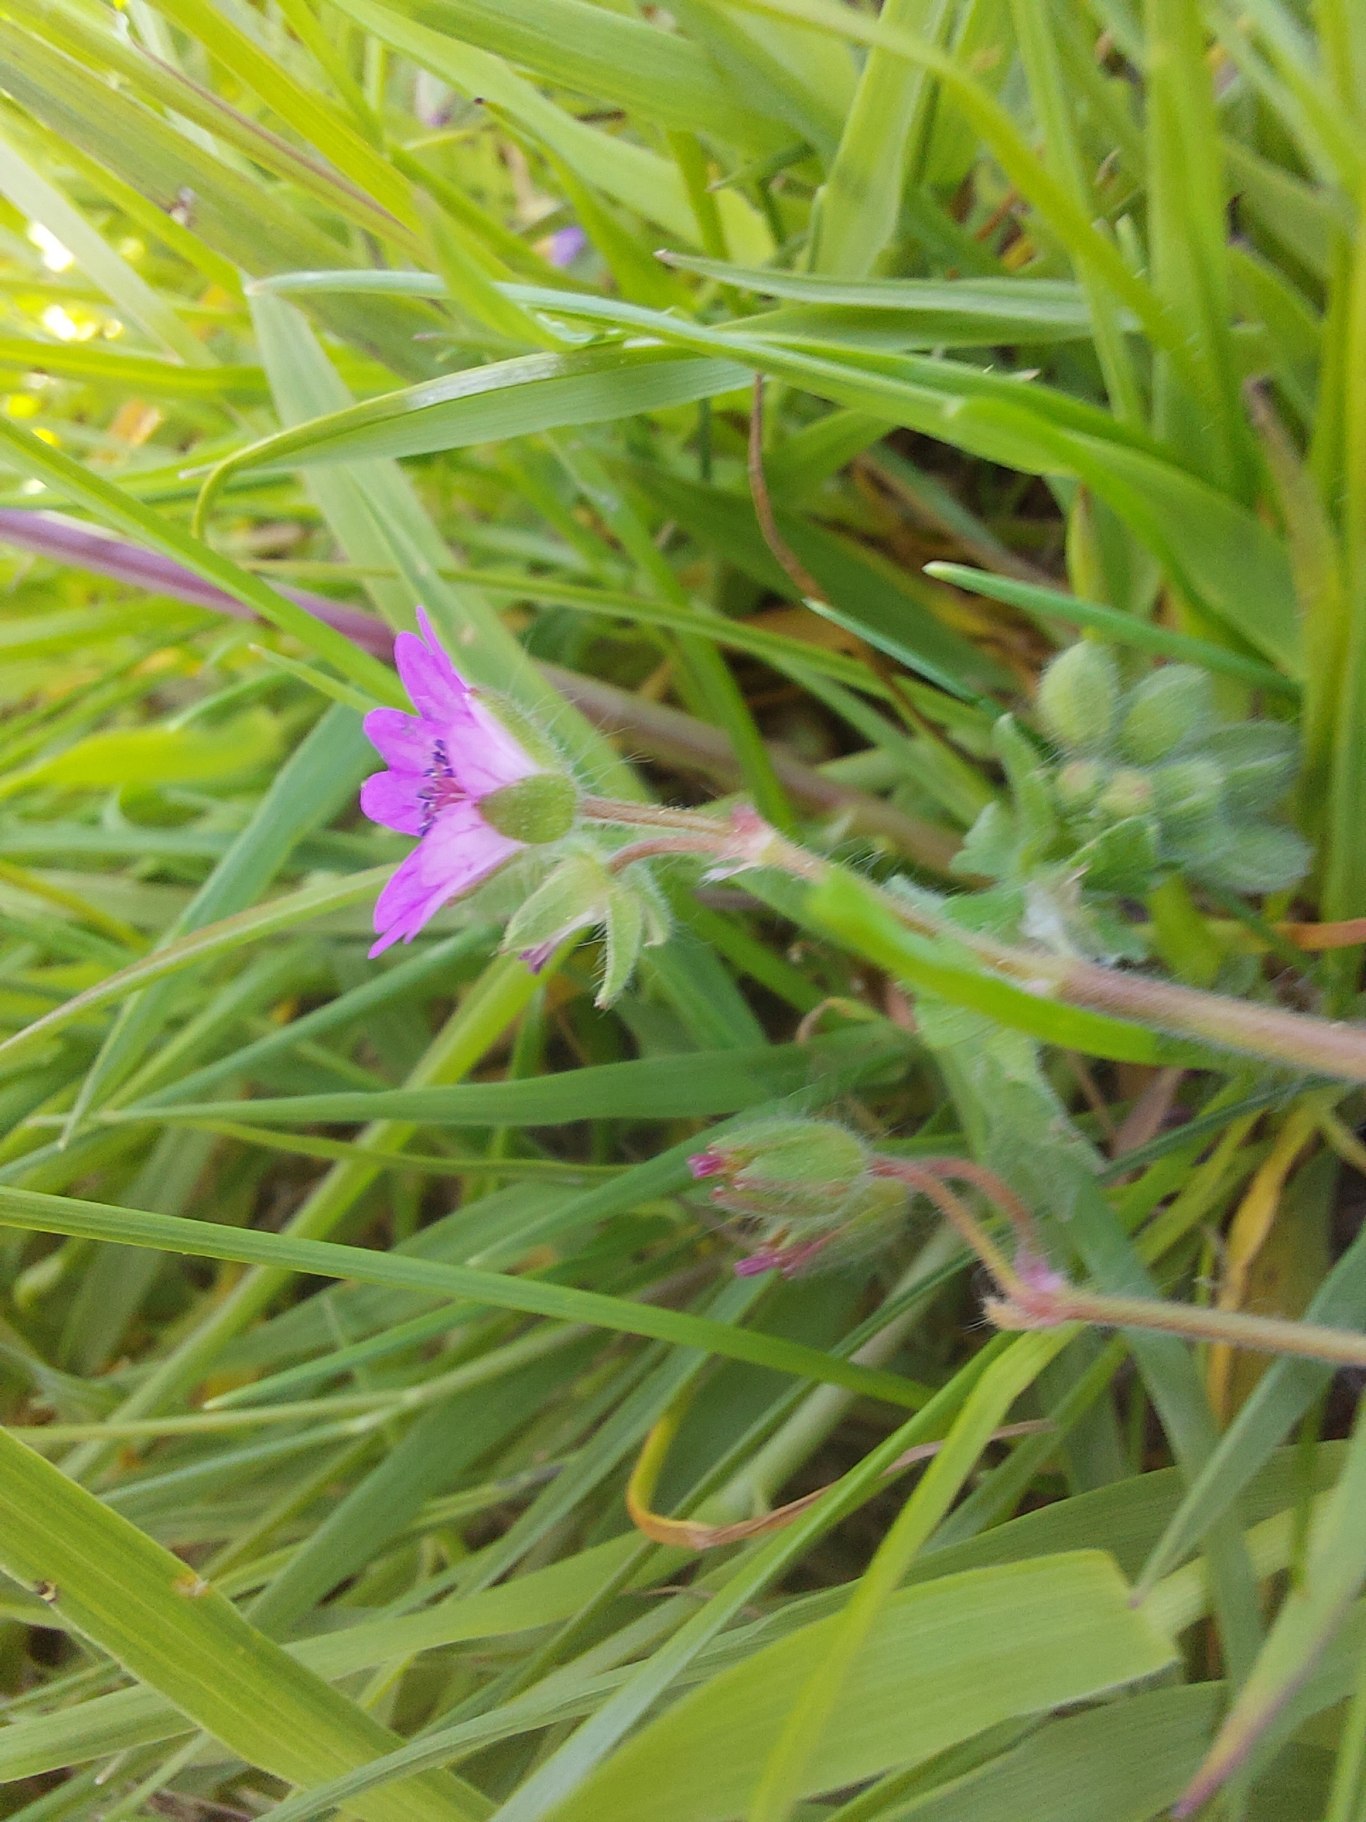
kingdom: Plantae
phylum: Tracheophyta
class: Magnoliopsida
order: Geraniales
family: Geraniaceae
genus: Geranium
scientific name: Geranium molle
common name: Blød storkenæb
